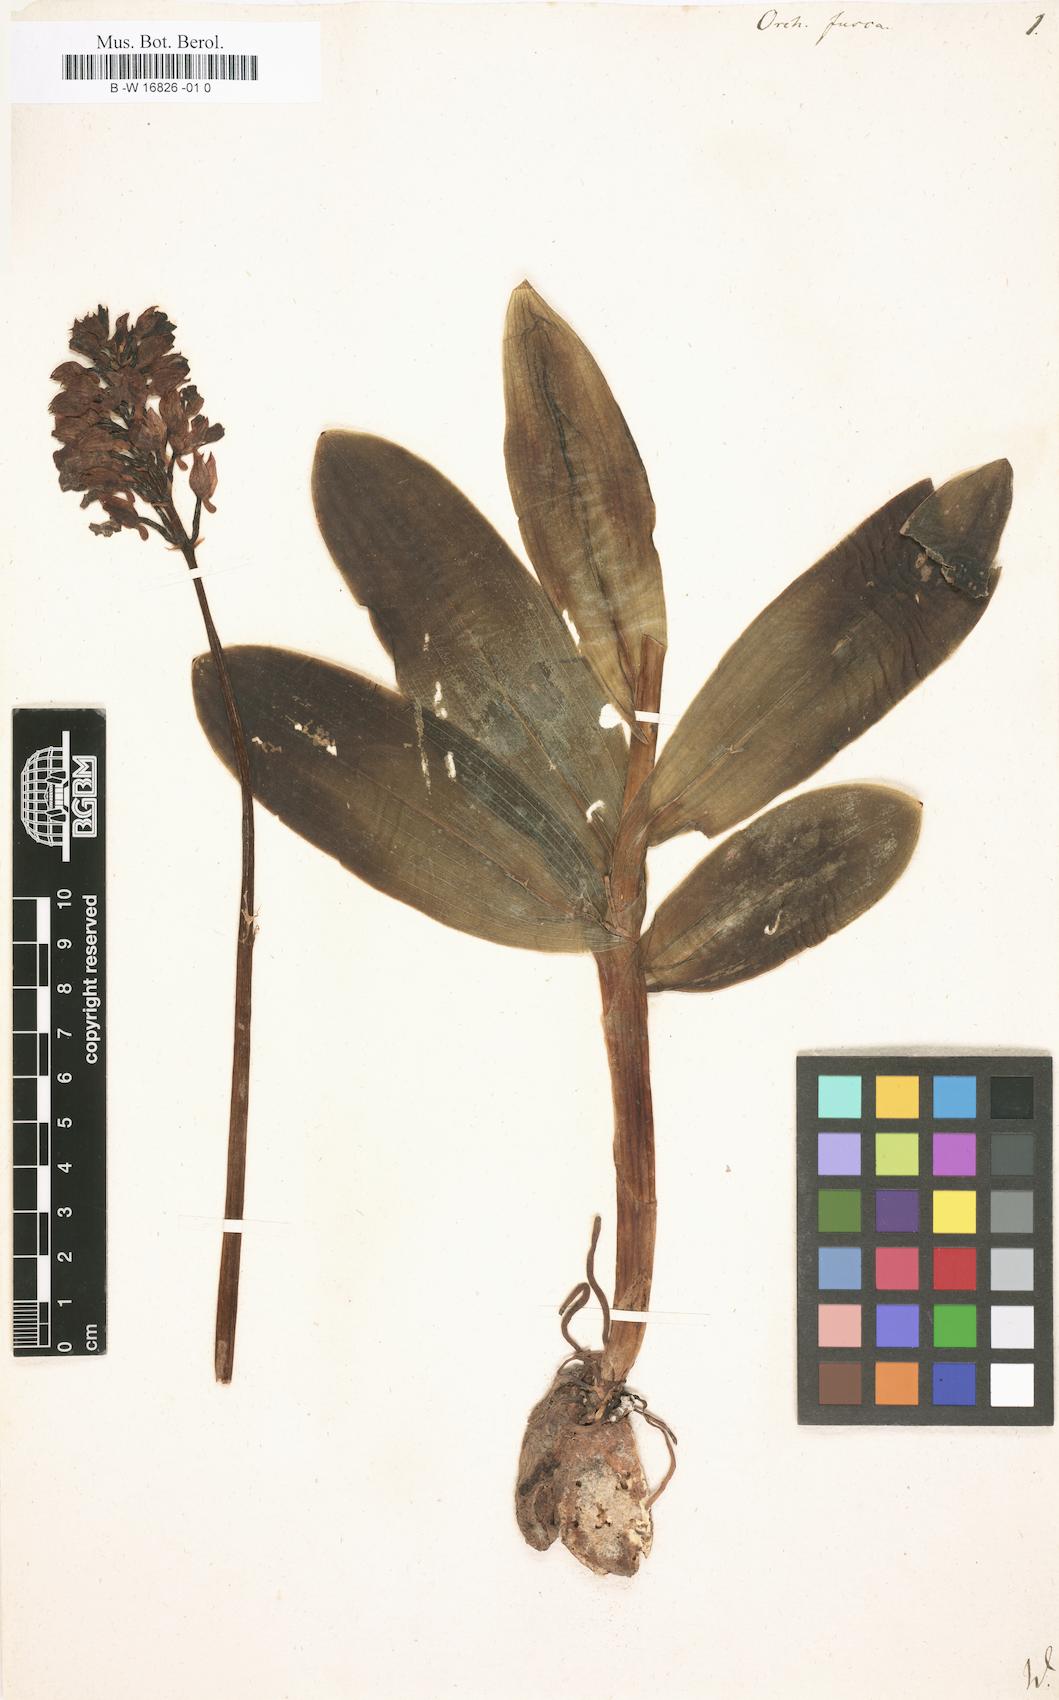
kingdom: Plantae
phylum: Tracheophyta
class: Liliopsida
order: Asparagales
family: Orchidaceae
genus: Orchis
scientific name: Orchis purpurea
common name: Lady orchid
